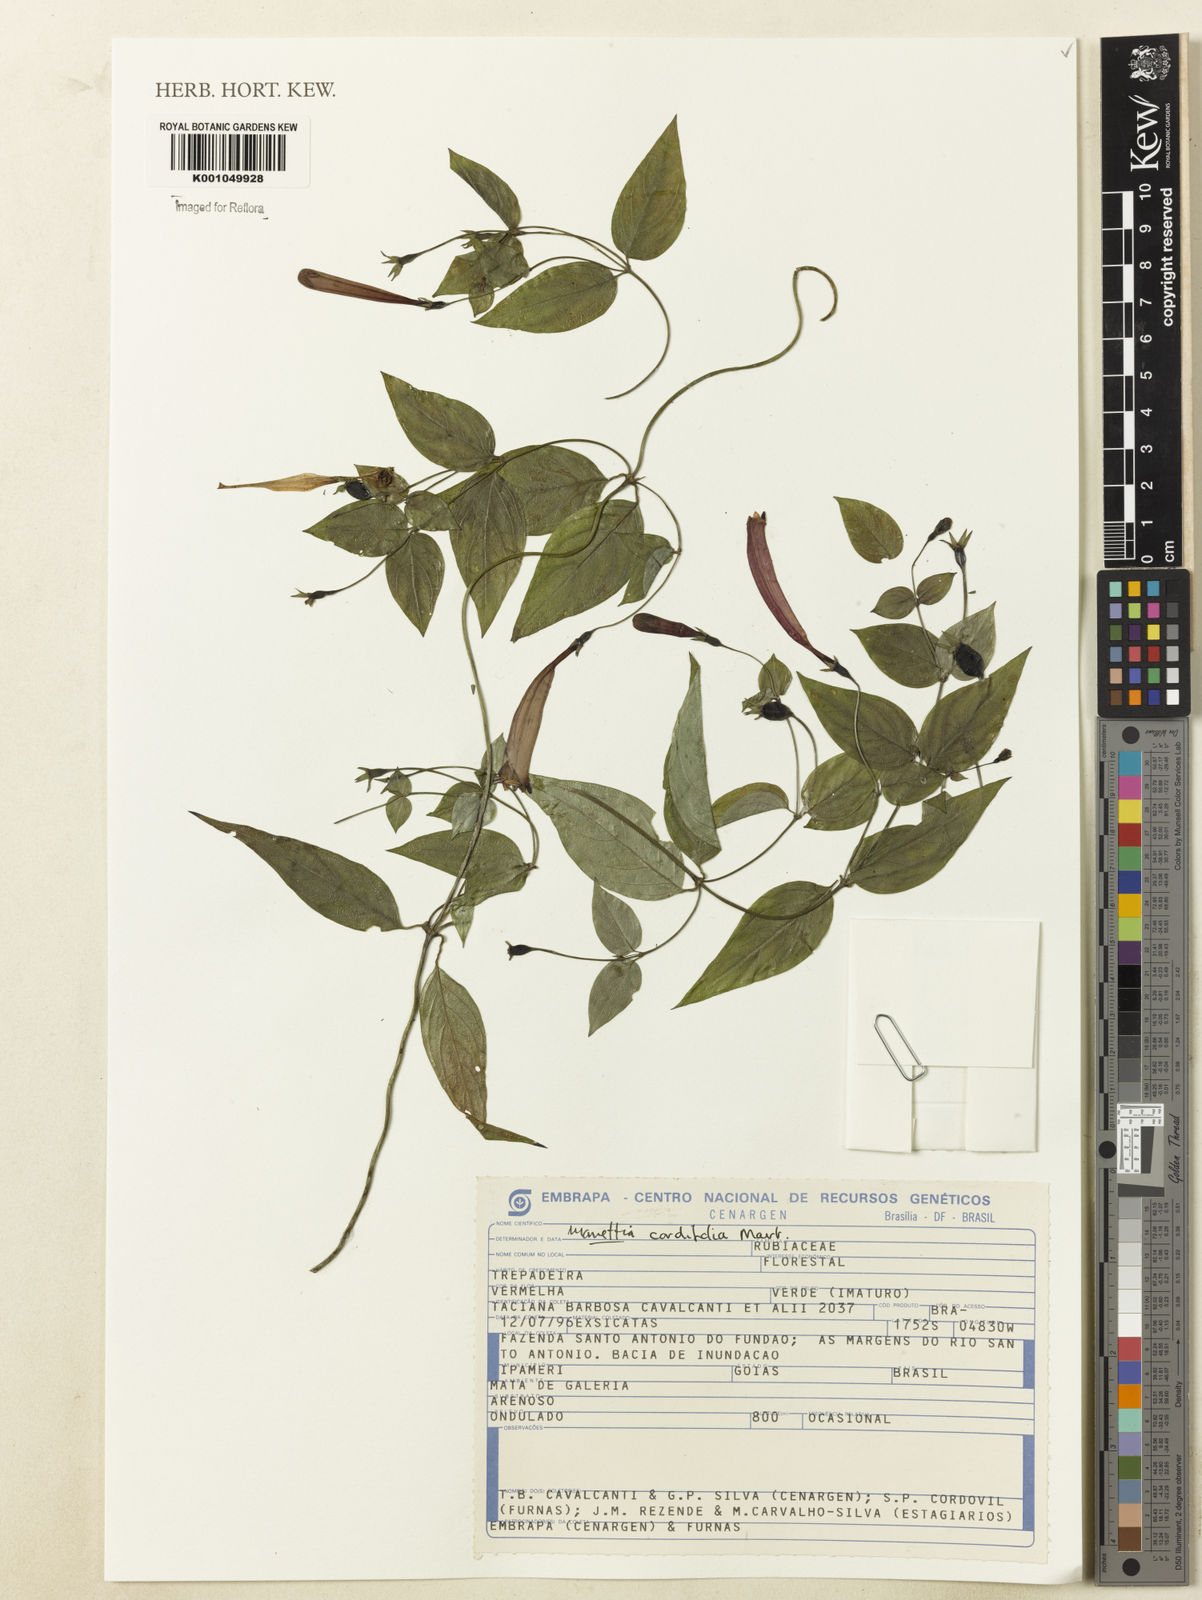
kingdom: Plantae
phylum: Tracheophyta
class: Magnoliopsida
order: Gentianales
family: Rubiaceae
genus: Manettia
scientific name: Manettia cordifolia
